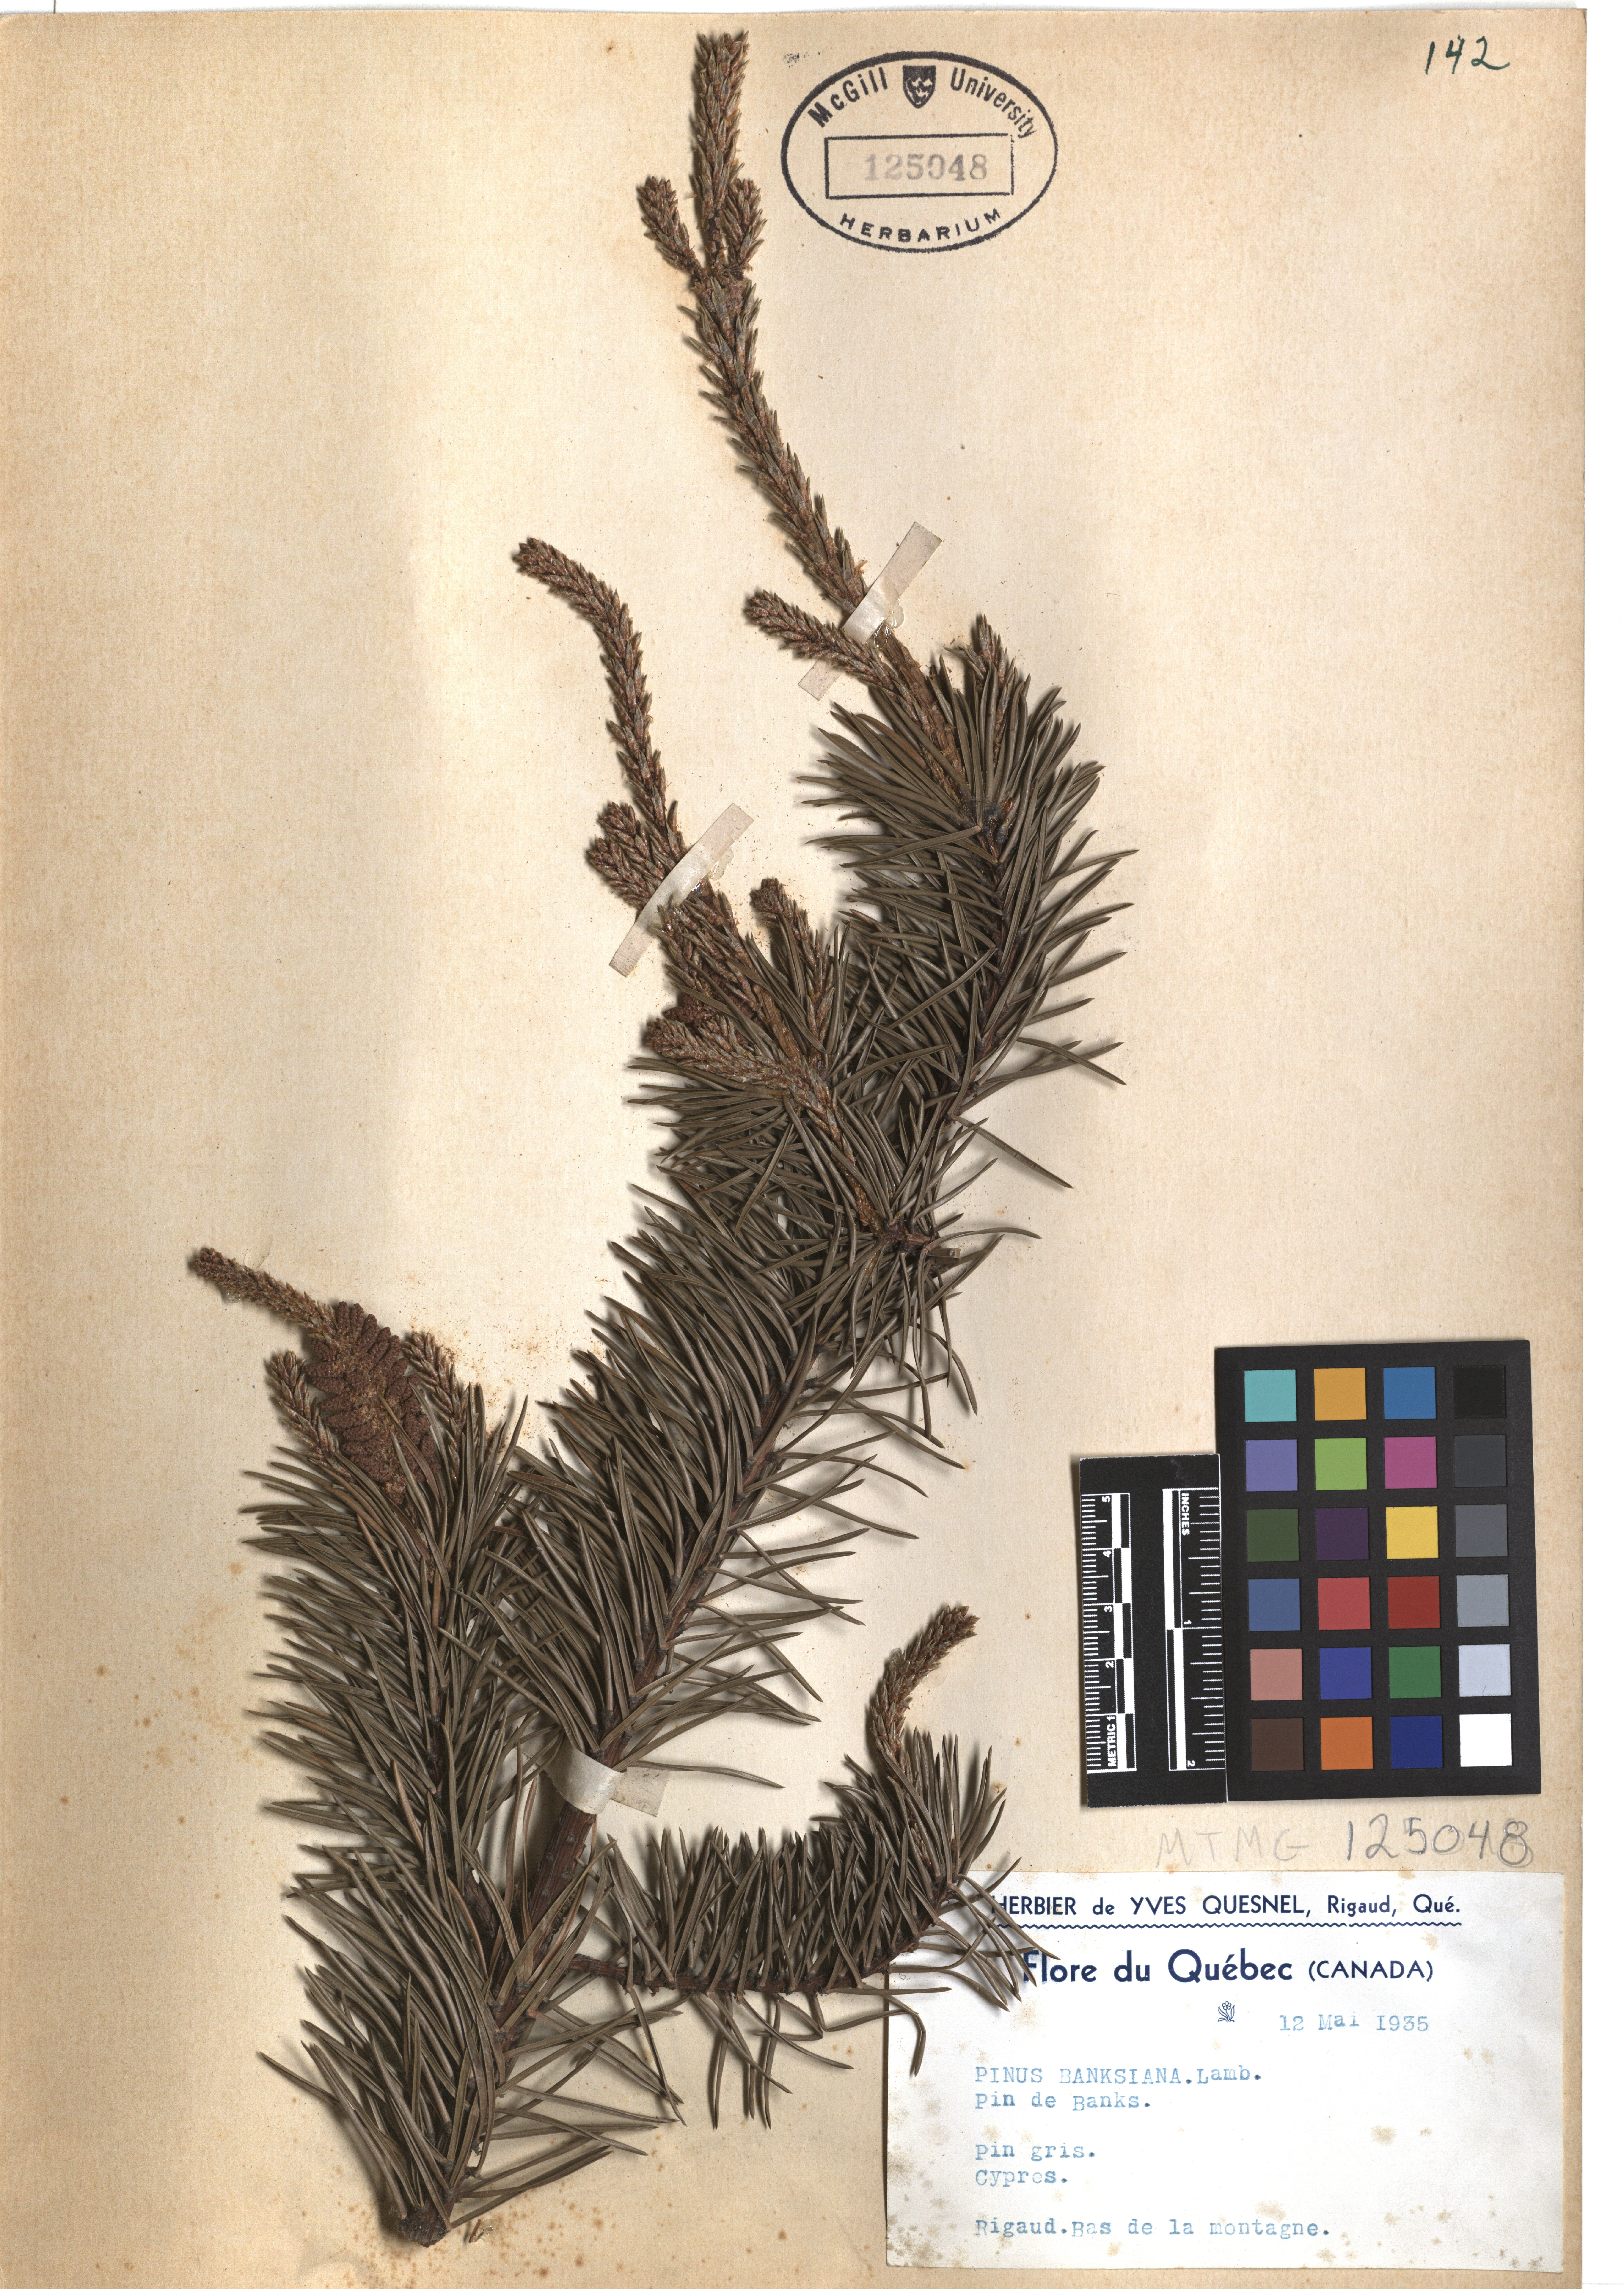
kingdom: Plantae
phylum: Tracheophyta
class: Pinopsida
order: Pinales
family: Pinaceae
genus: Pinus
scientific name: Pinus banksiana
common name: Jack pine
